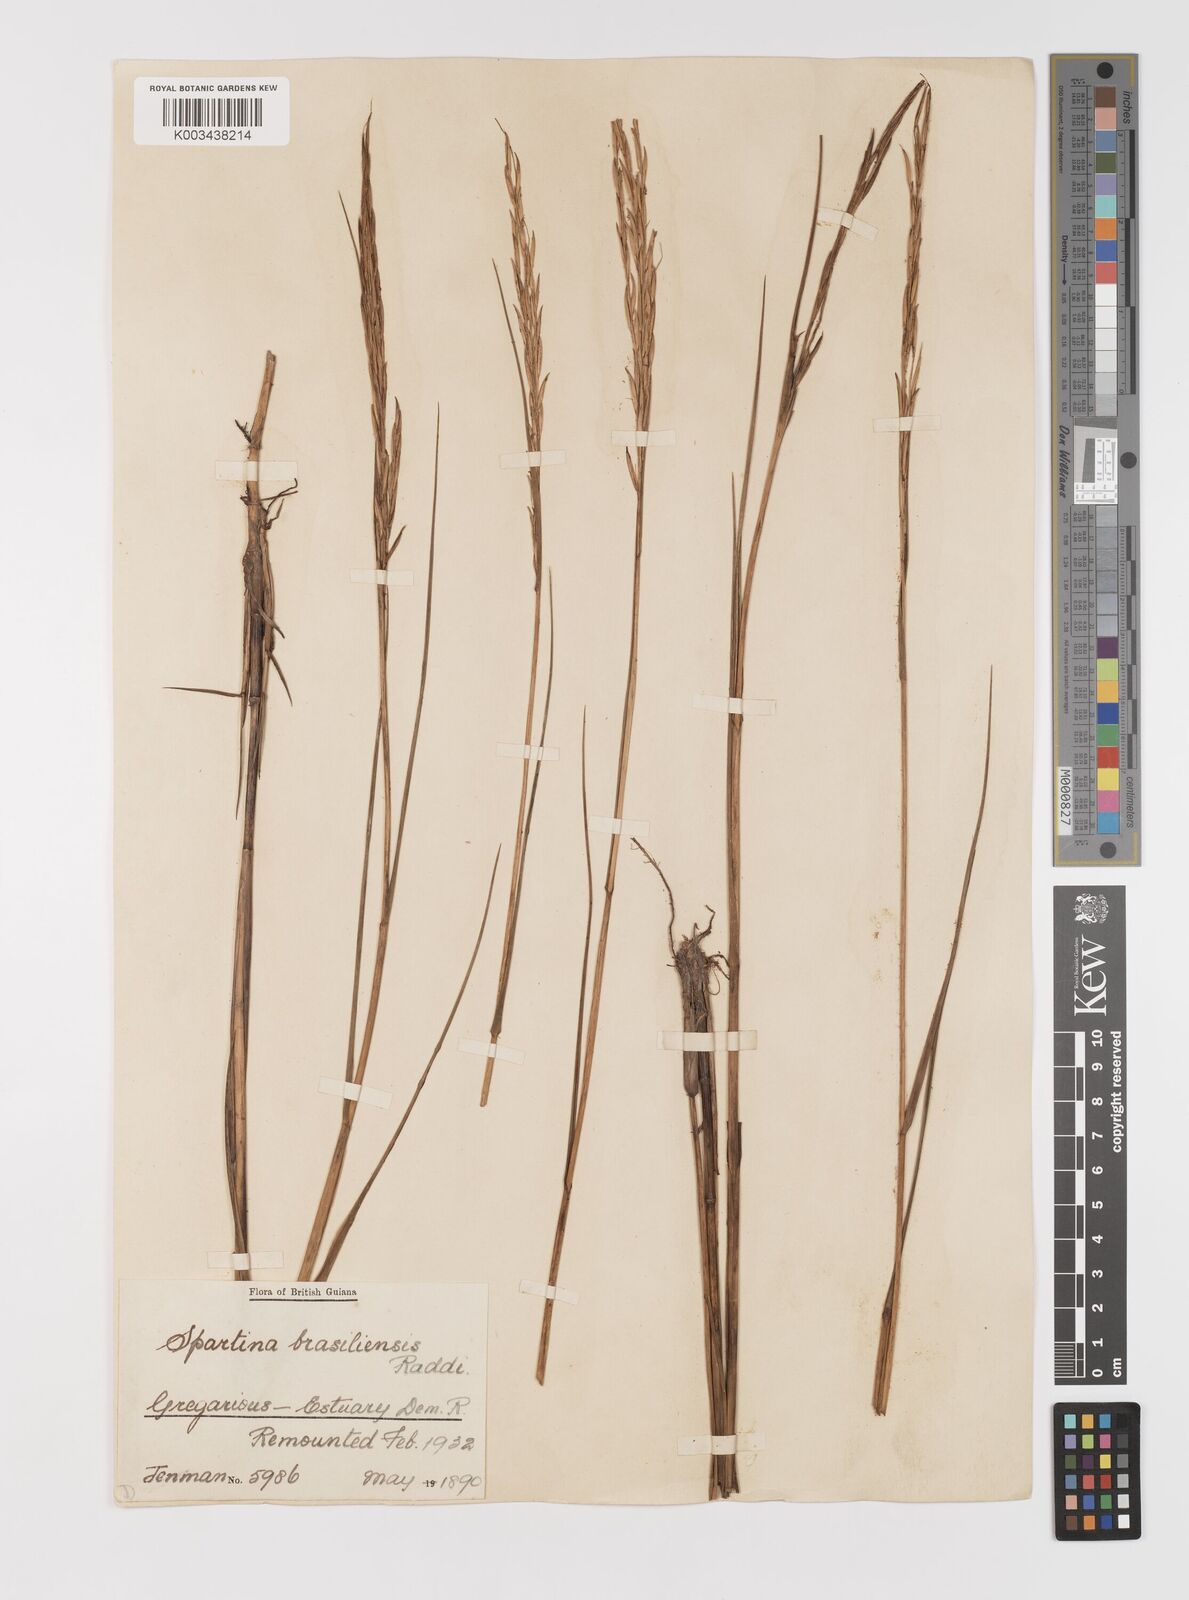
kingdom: Plantae
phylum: Tracheophyta
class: Liliopsida
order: Poales
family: Poaceae
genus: Sporobolus
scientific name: Sporobolus alterniflorus
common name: Atlantic cordgrass
